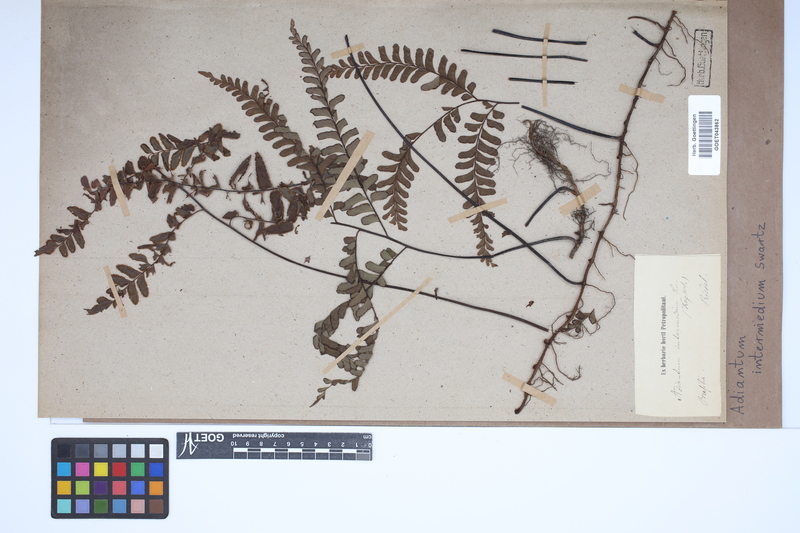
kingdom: Plantae
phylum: Tracheophyta
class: Polypodiopsida
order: Polypodiales
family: Pteridaceae
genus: Adiantum
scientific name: Adiantum intermedium
